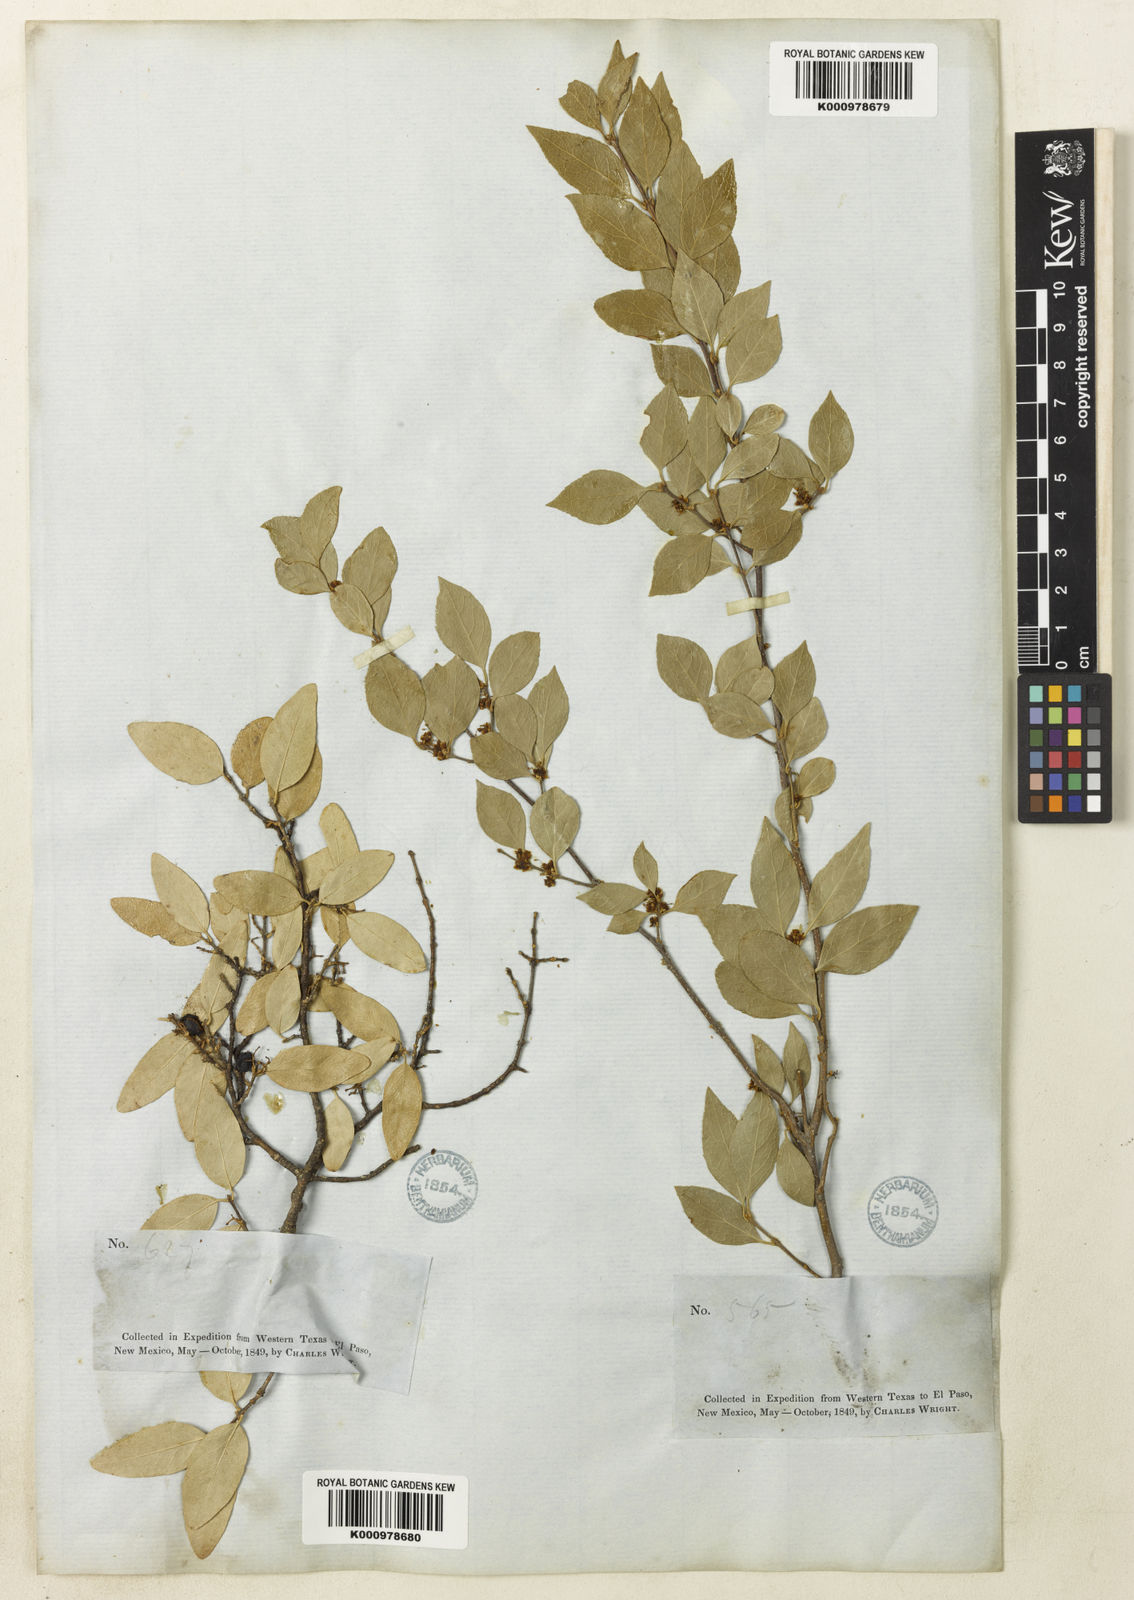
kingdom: Plantae
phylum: Tracheophyta
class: Magnoliopsida
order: Lamiales
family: Oleaceae
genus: Forestiera
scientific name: Forestiera reticulata
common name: Netleaf swamp-privet
